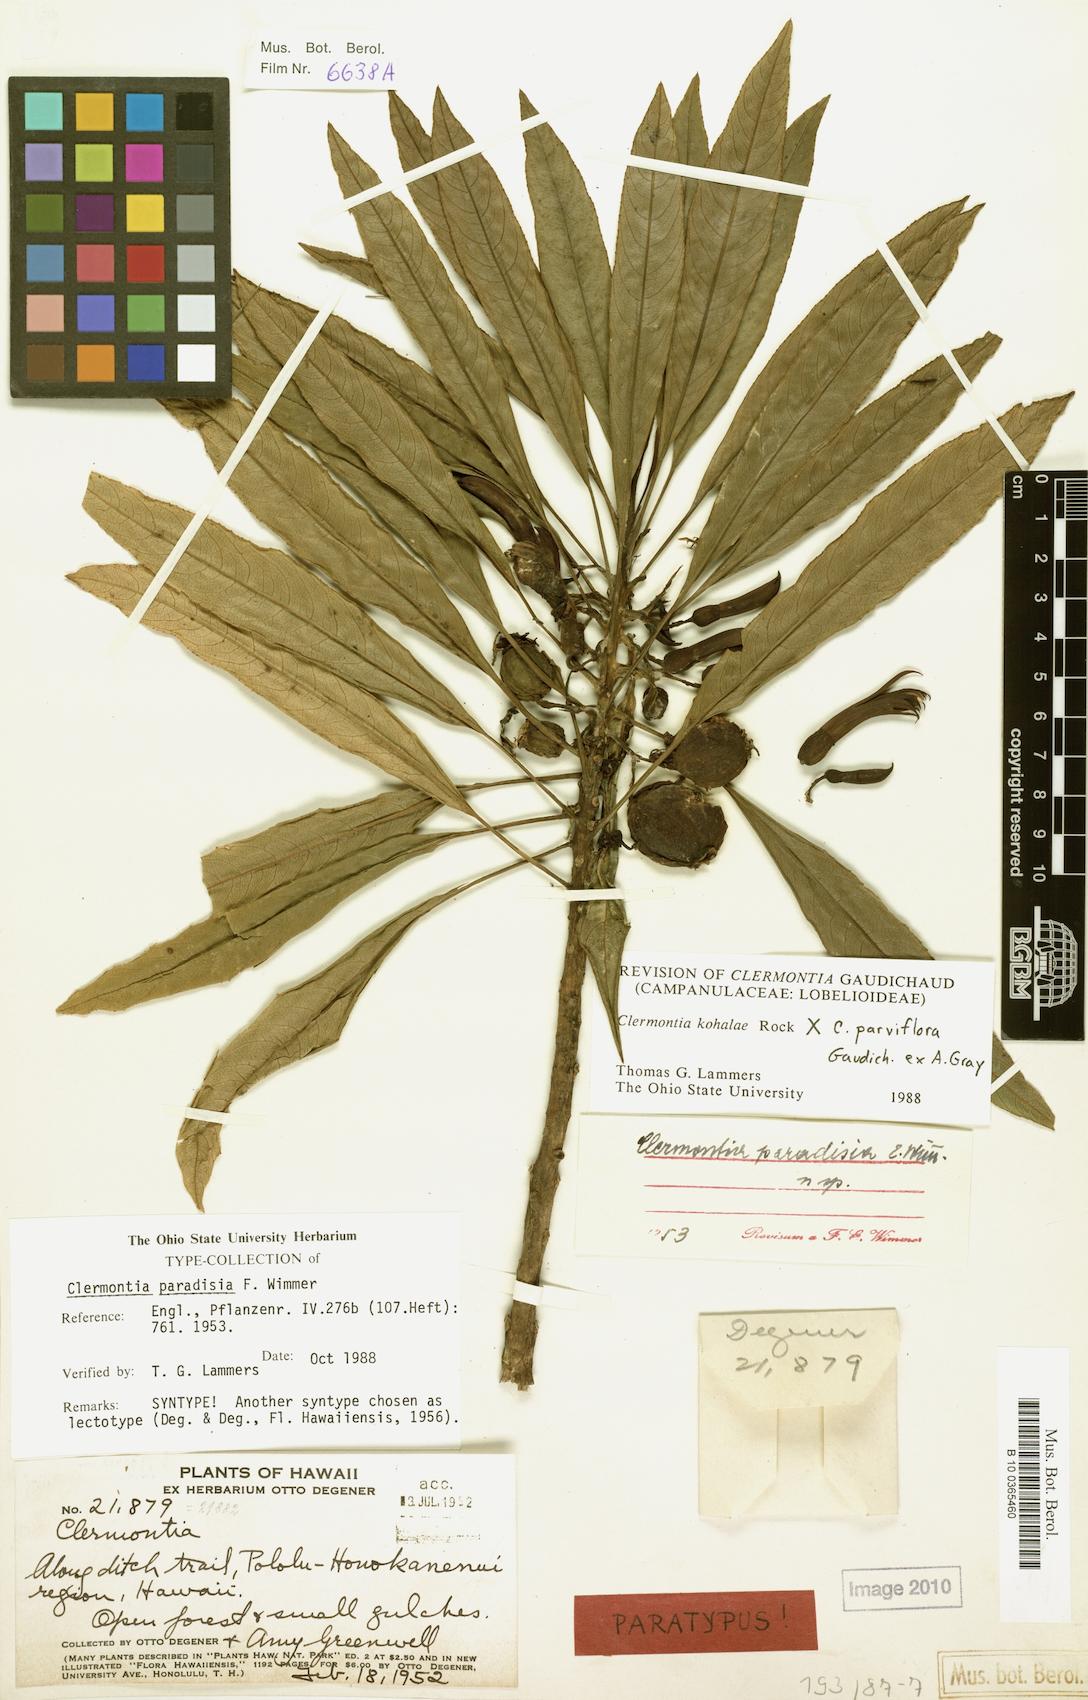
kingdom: Plantae
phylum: Tracheophyta
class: Magnoliopsida
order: Asterales
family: Campanulaceae
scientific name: Campanulaceae
